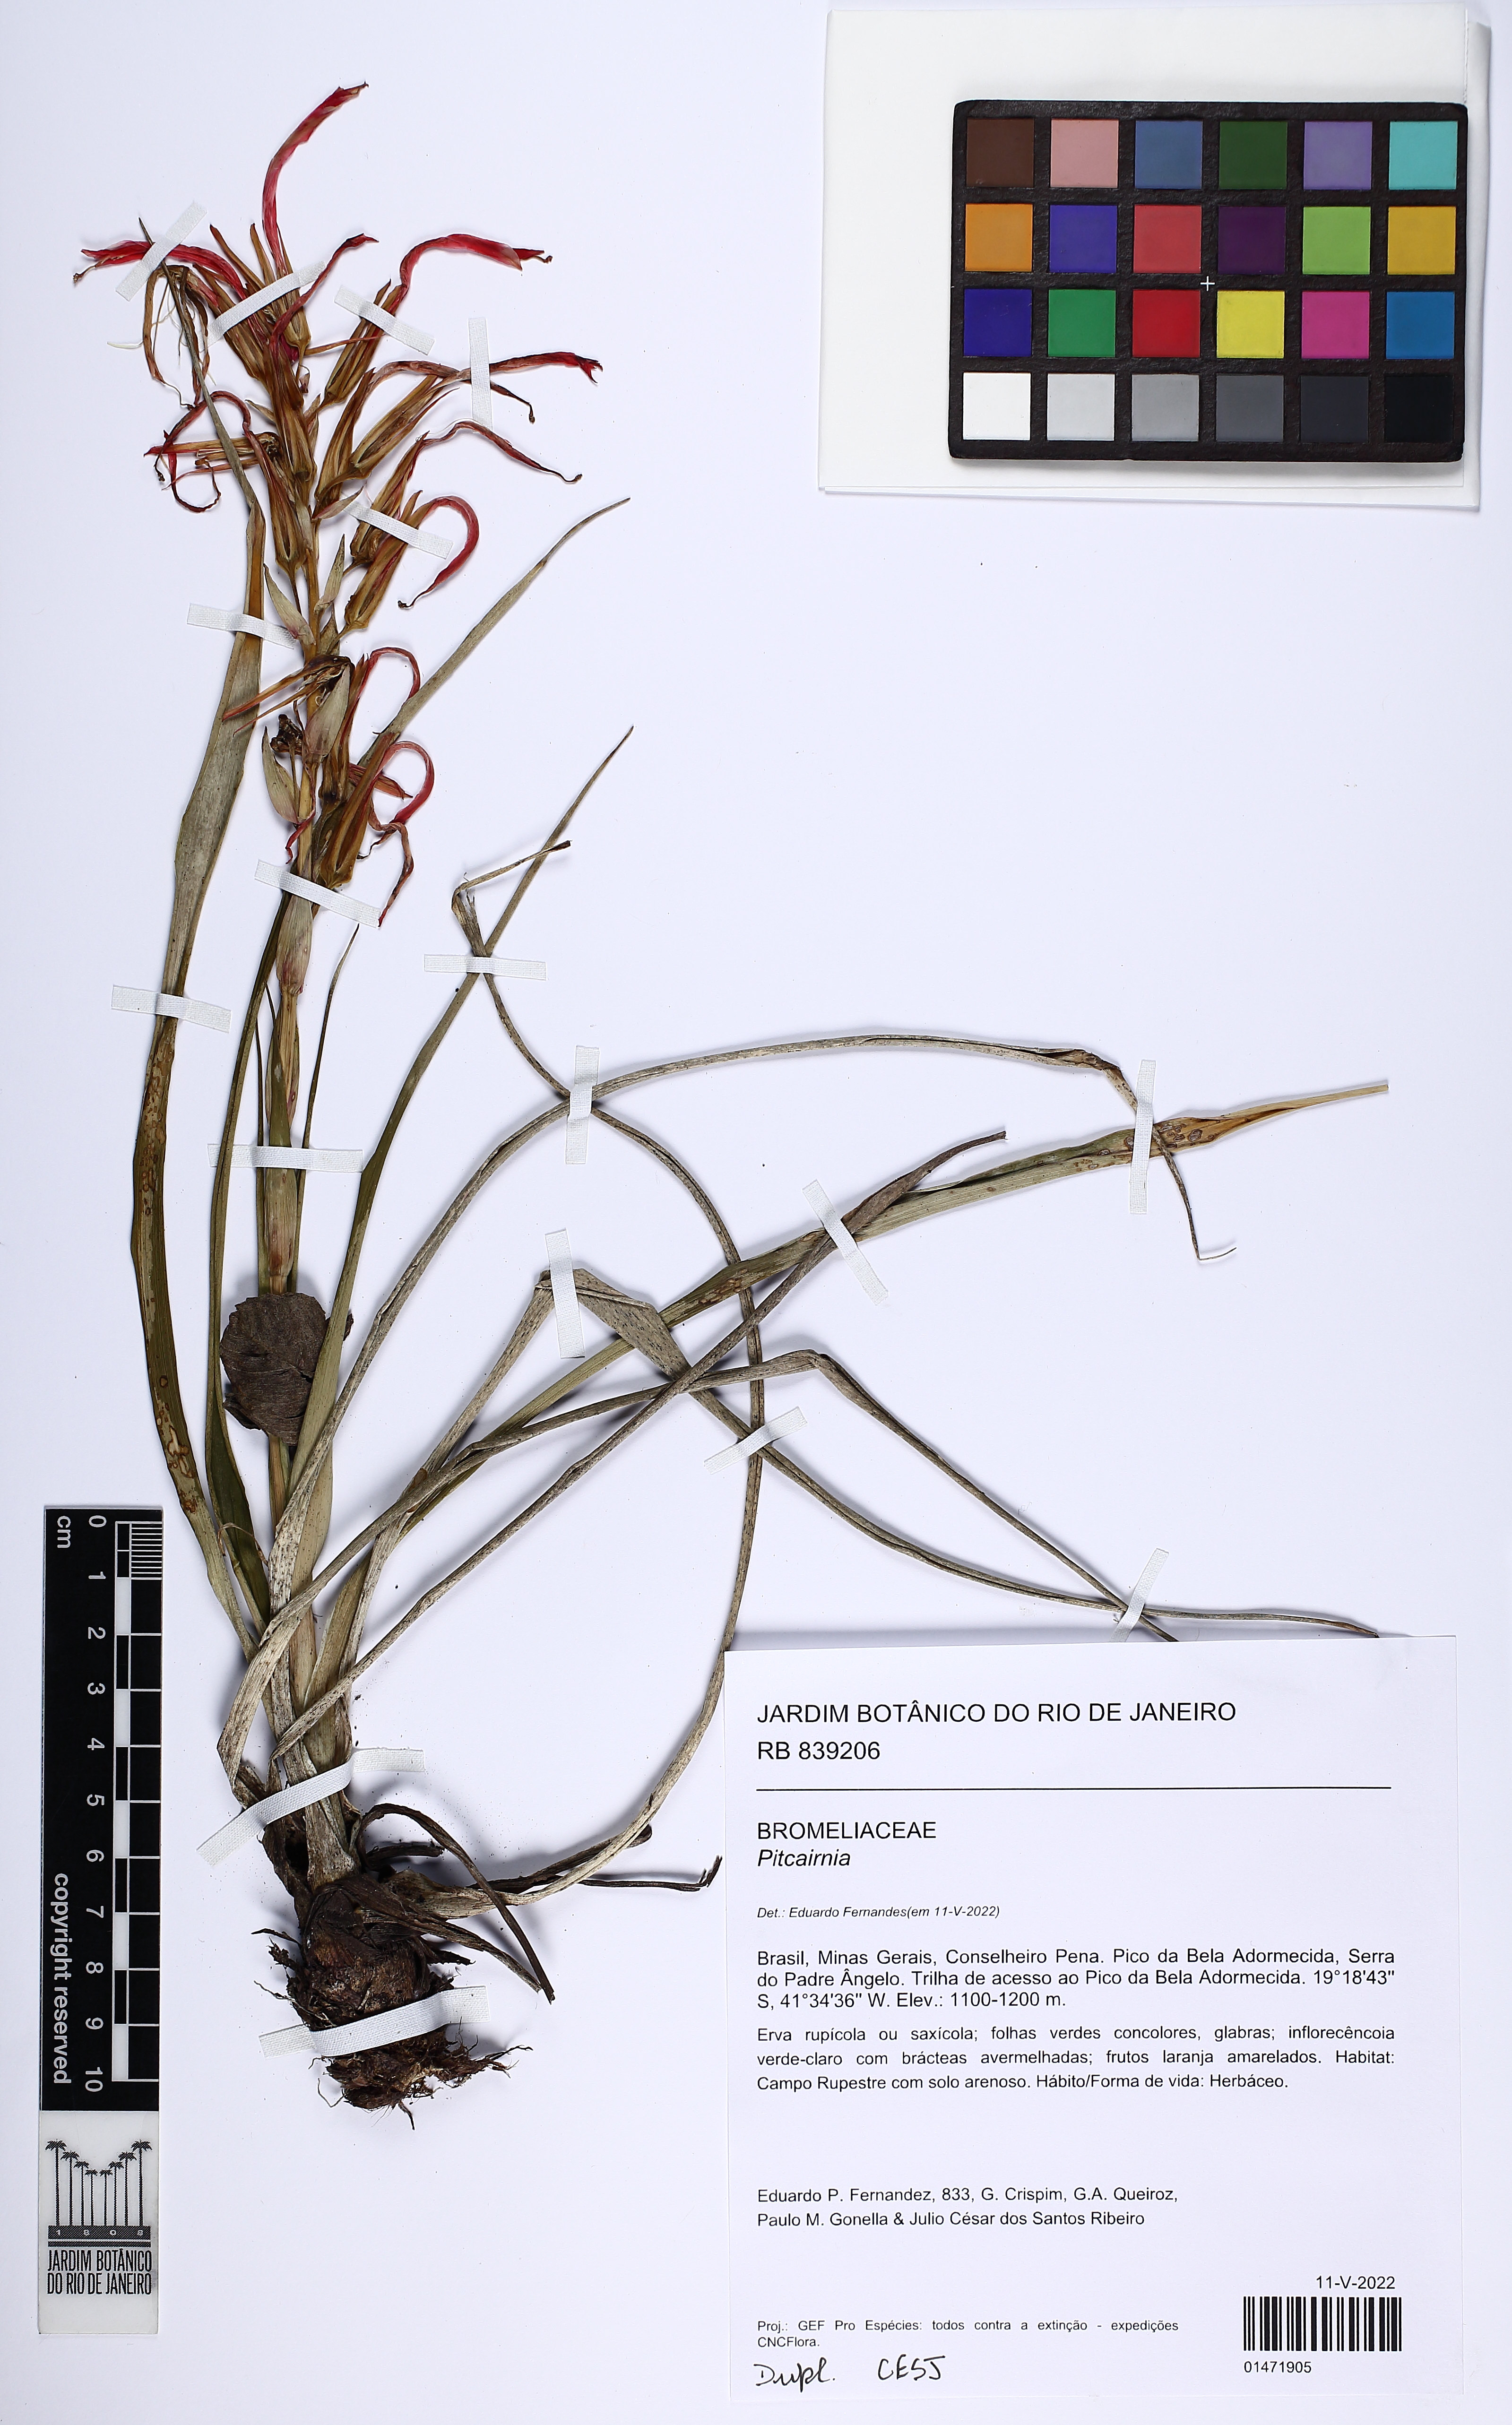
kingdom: Plantae
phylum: Tracheophyta
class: Liliopsida
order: Poales
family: Bromeliaceae
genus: Pitcairnia
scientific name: Pitcairnia
